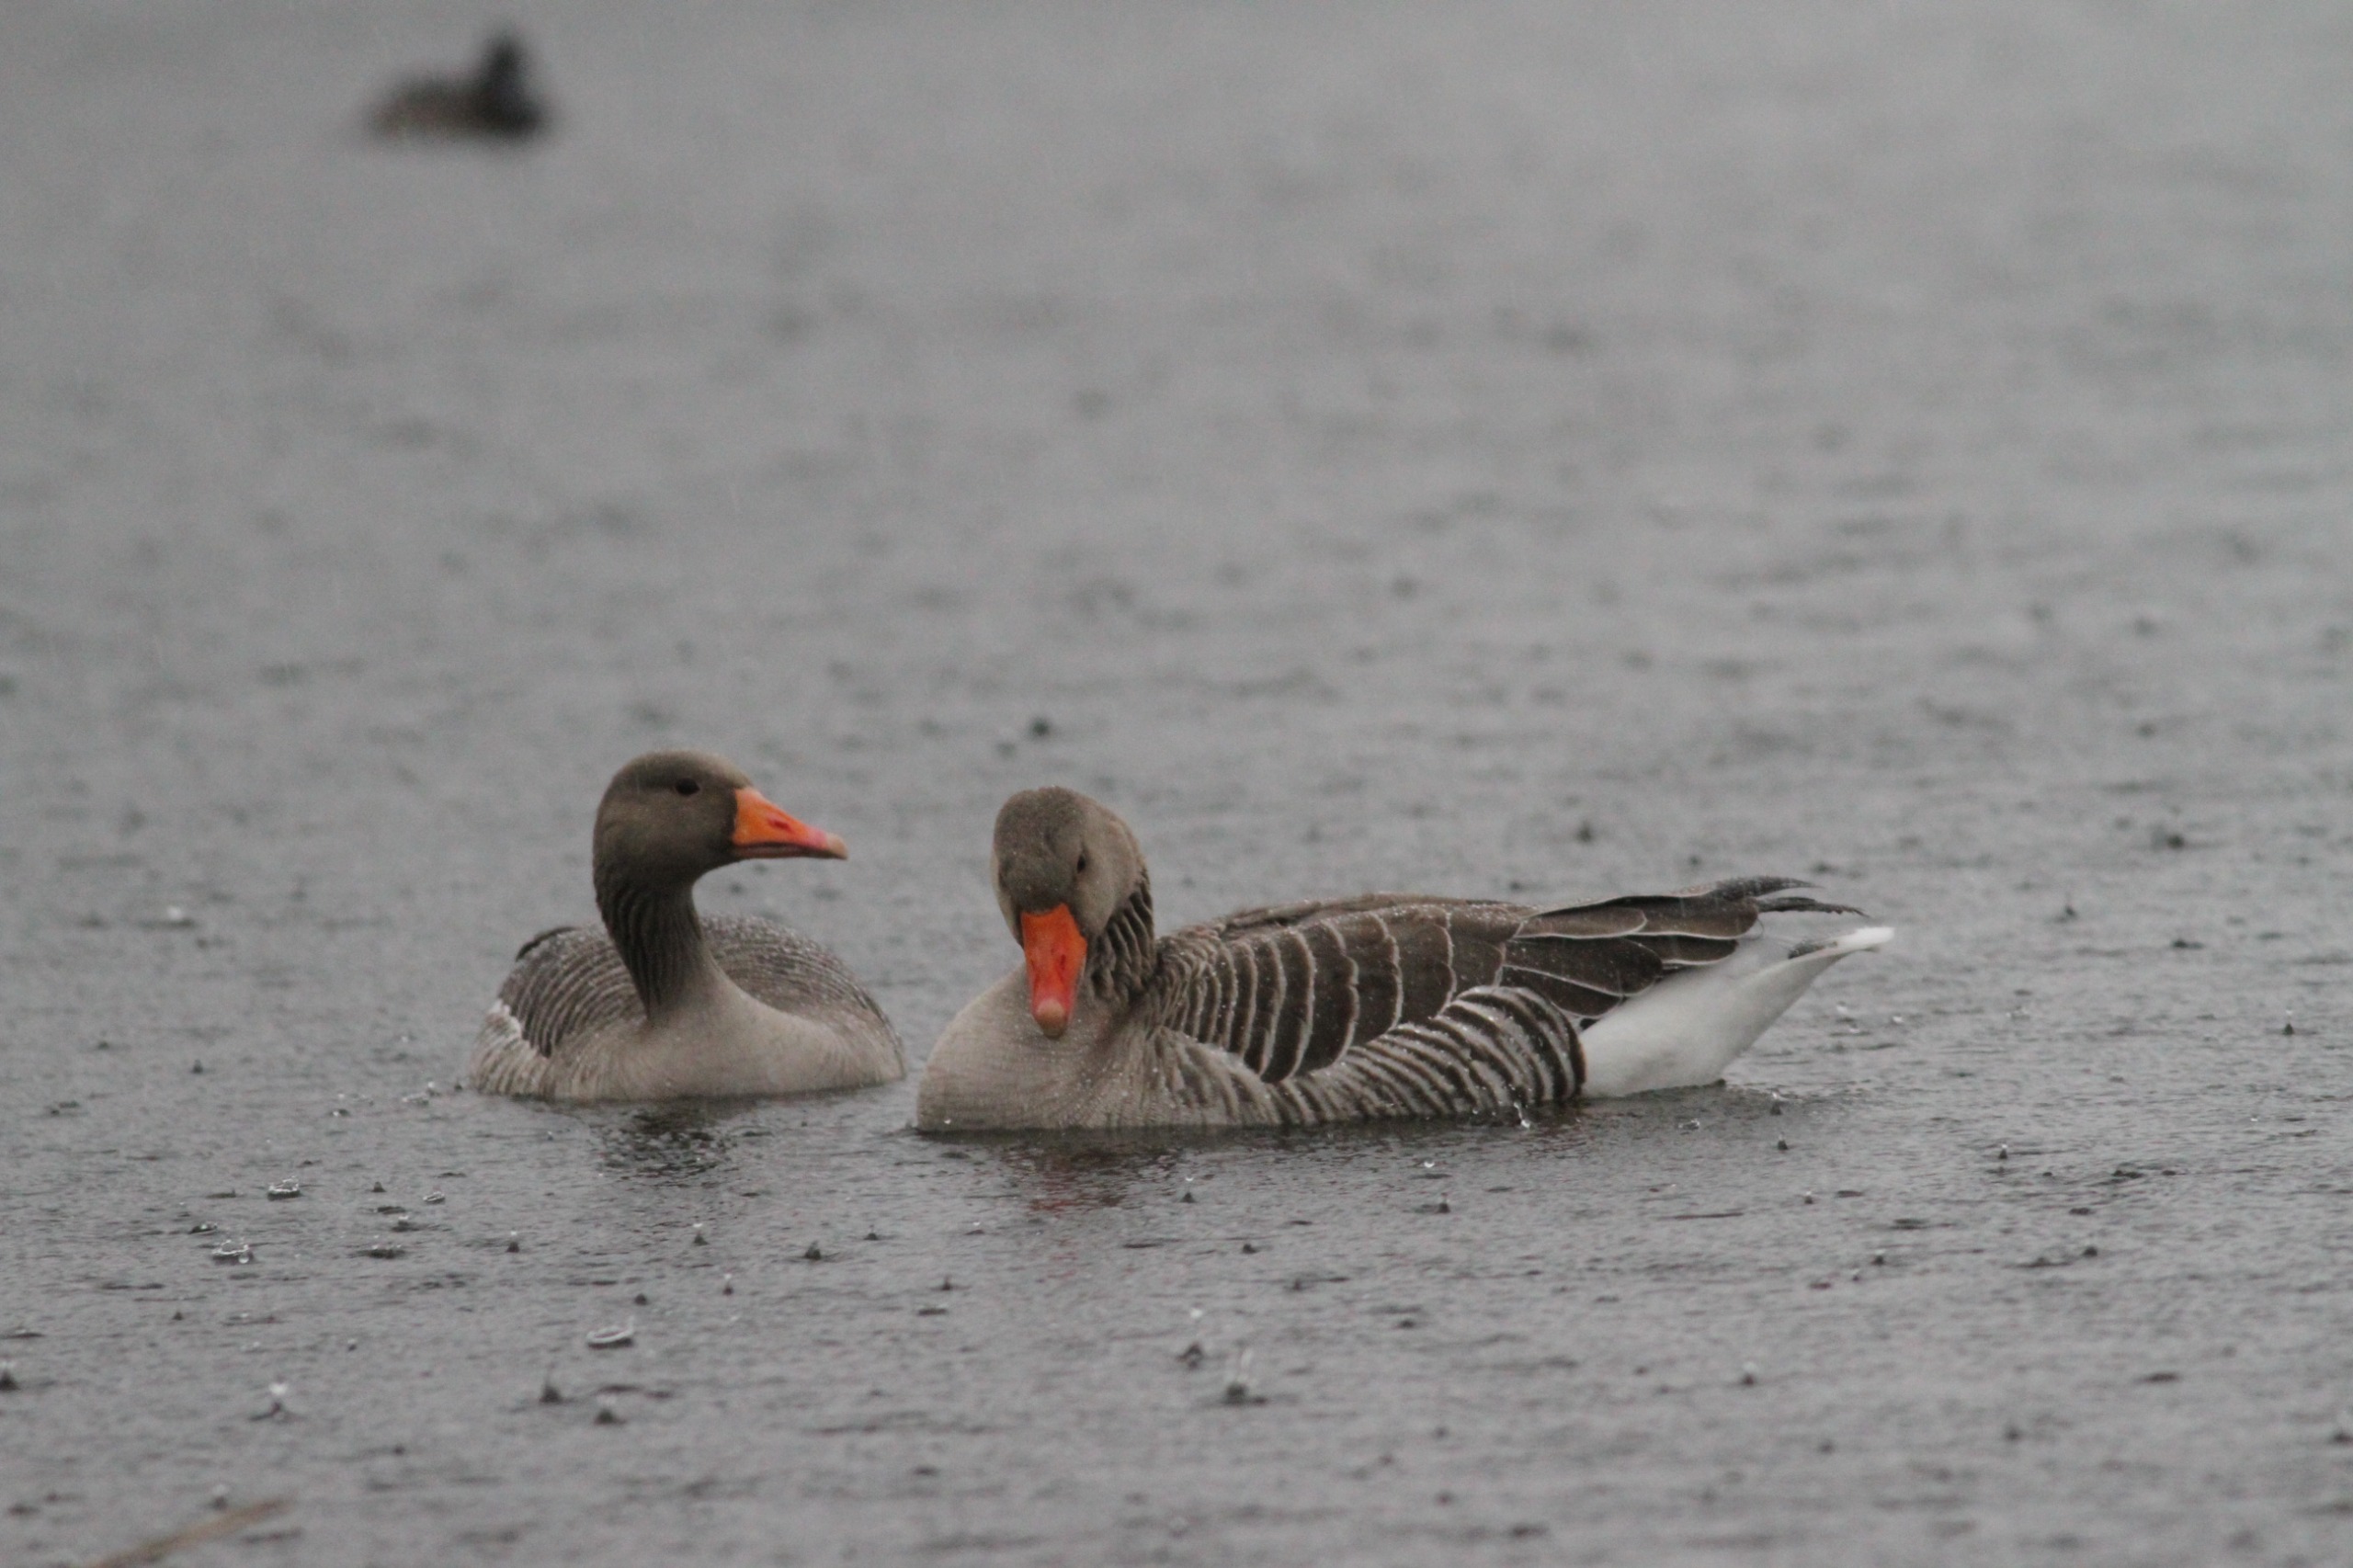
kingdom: Animalia
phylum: Chordata
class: Aves
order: Anseriformes
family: Anatidae
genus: Anser
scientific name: Anser anser
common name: Grågås
